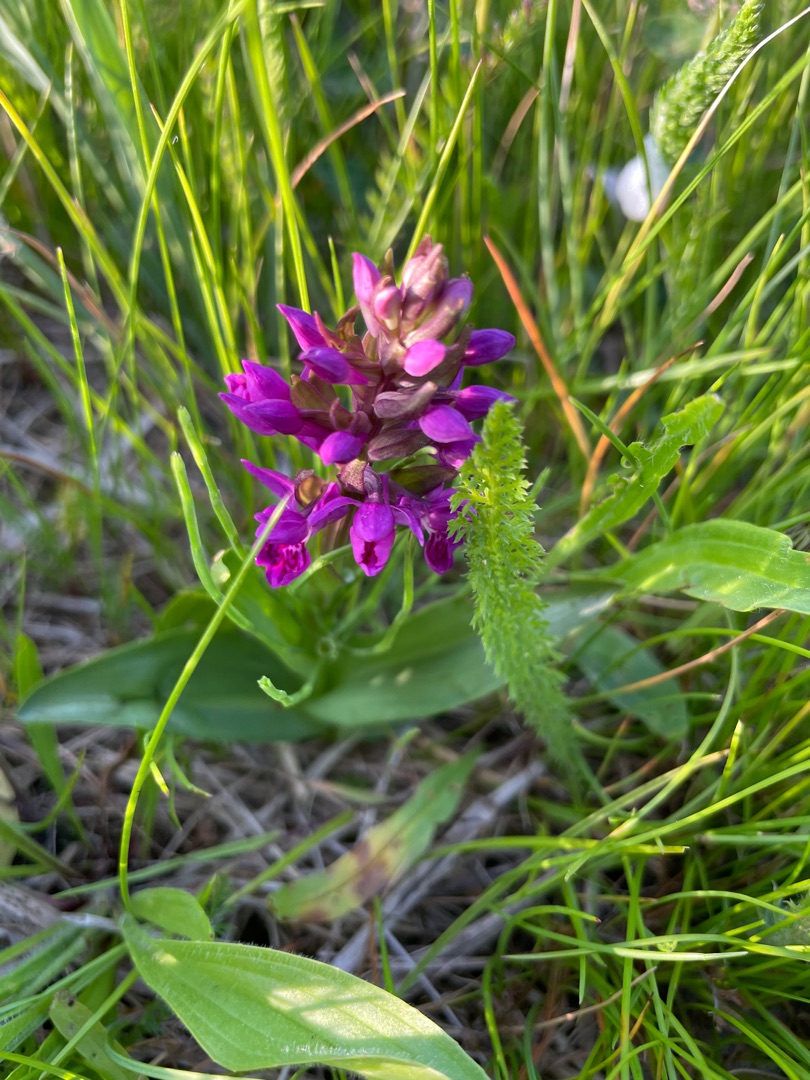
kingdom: Plantae
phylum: Tracheophyta
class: Liliopsida
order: Asparagales
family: Orchidaceae
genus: Dactylorhiza
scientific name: Dactylorhiza majalis
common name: Purpur-gøgeurt
